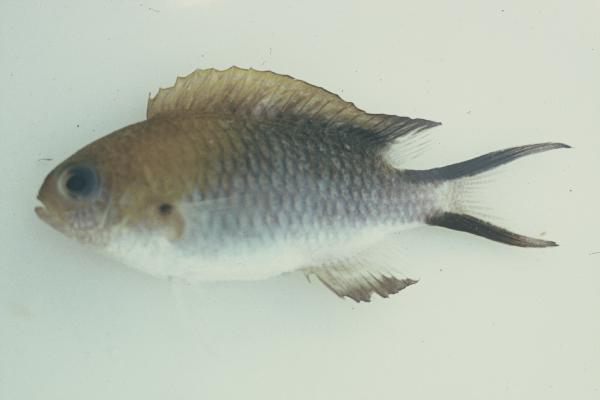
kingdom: Animalia
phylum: Chordata
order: Perciformes
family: Pomacentridae
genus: Pomachromis
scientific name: Pomachromis richardsoni
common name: Richardson's damsel
